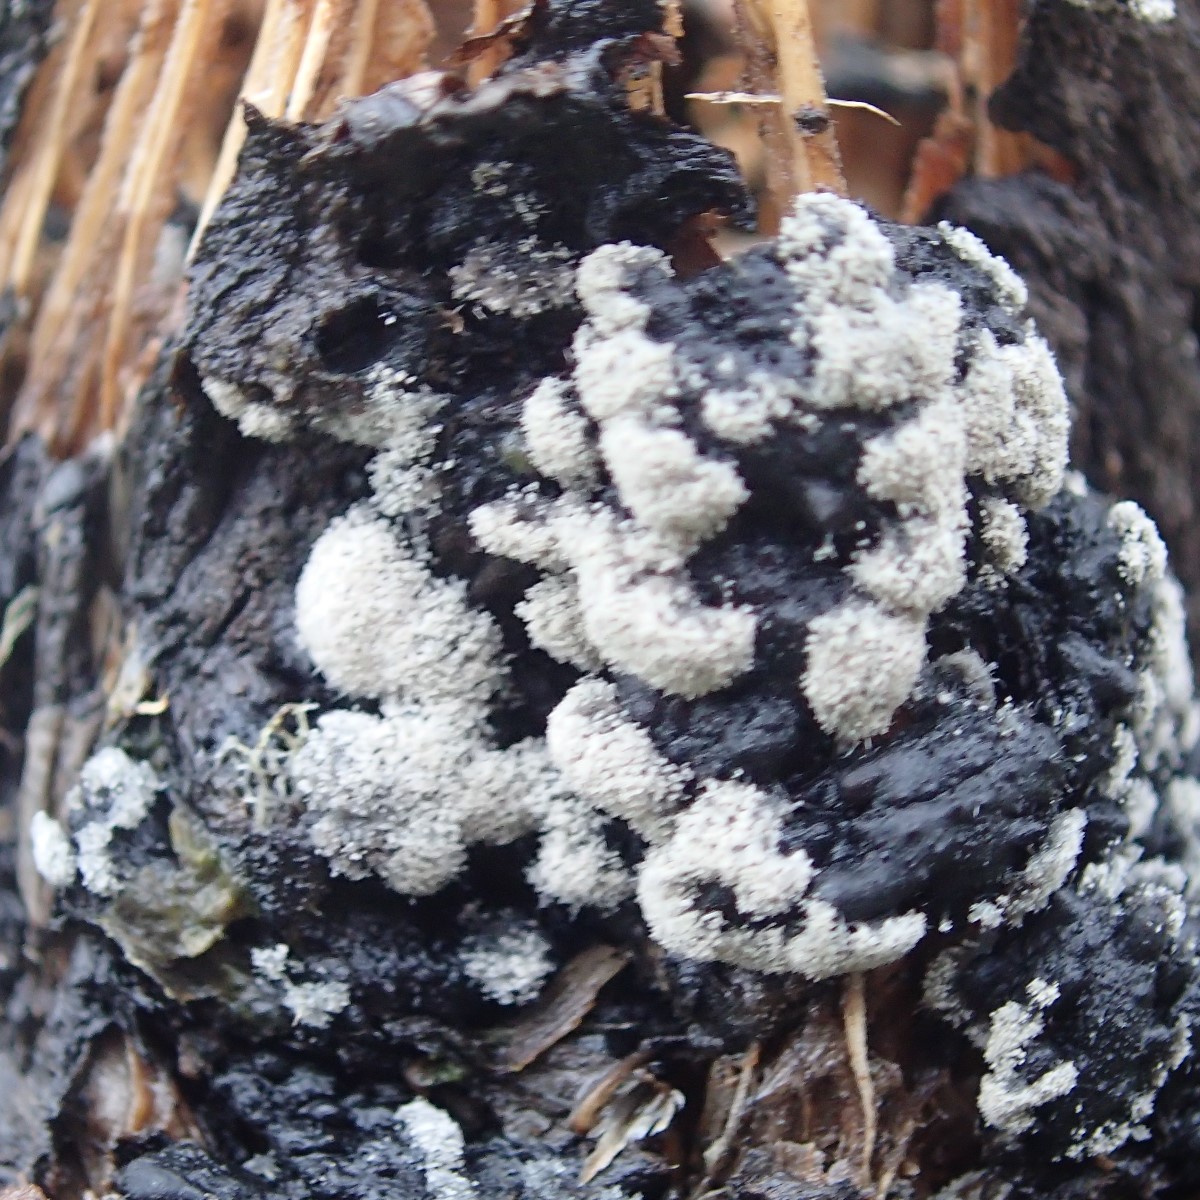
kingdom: Fungi
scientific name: Fungi
